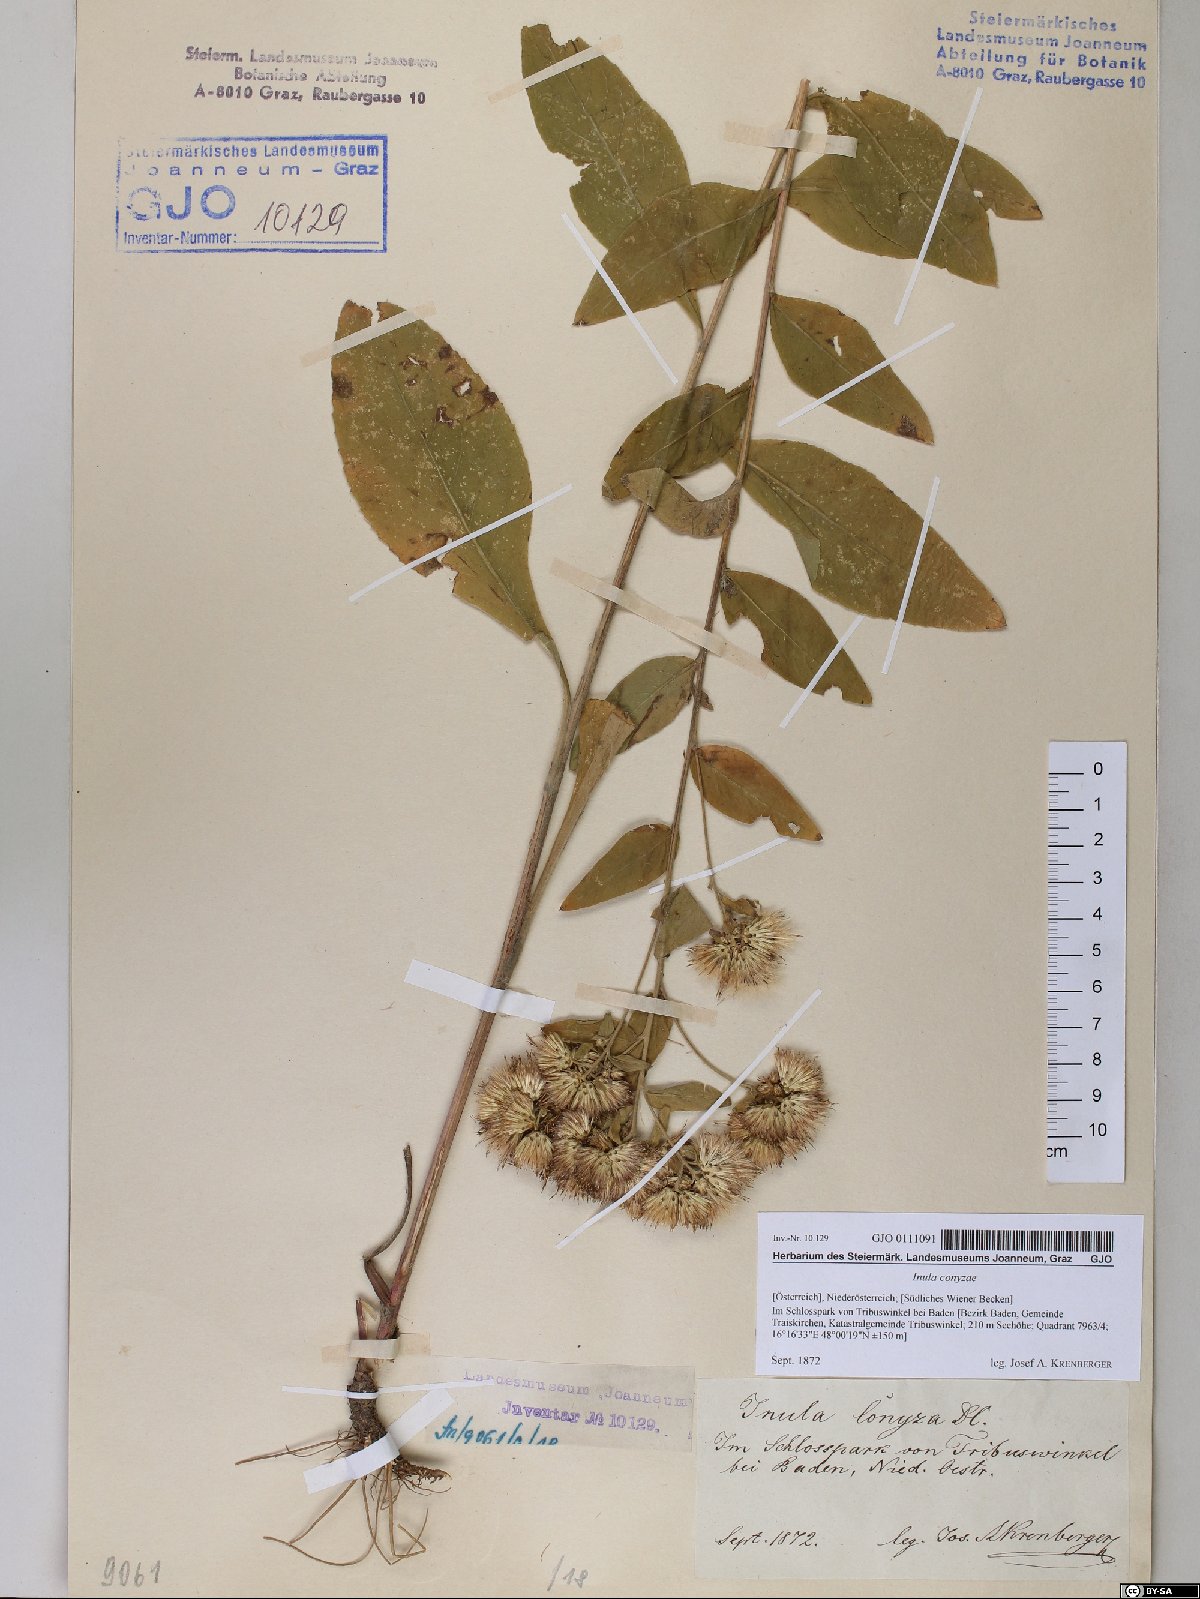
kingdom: Plantae
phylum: Tracheophyta
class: Magnoliopsida
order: Asterales
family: Asteraceae
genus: Pentanema
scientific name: Pentanema squarrosum
